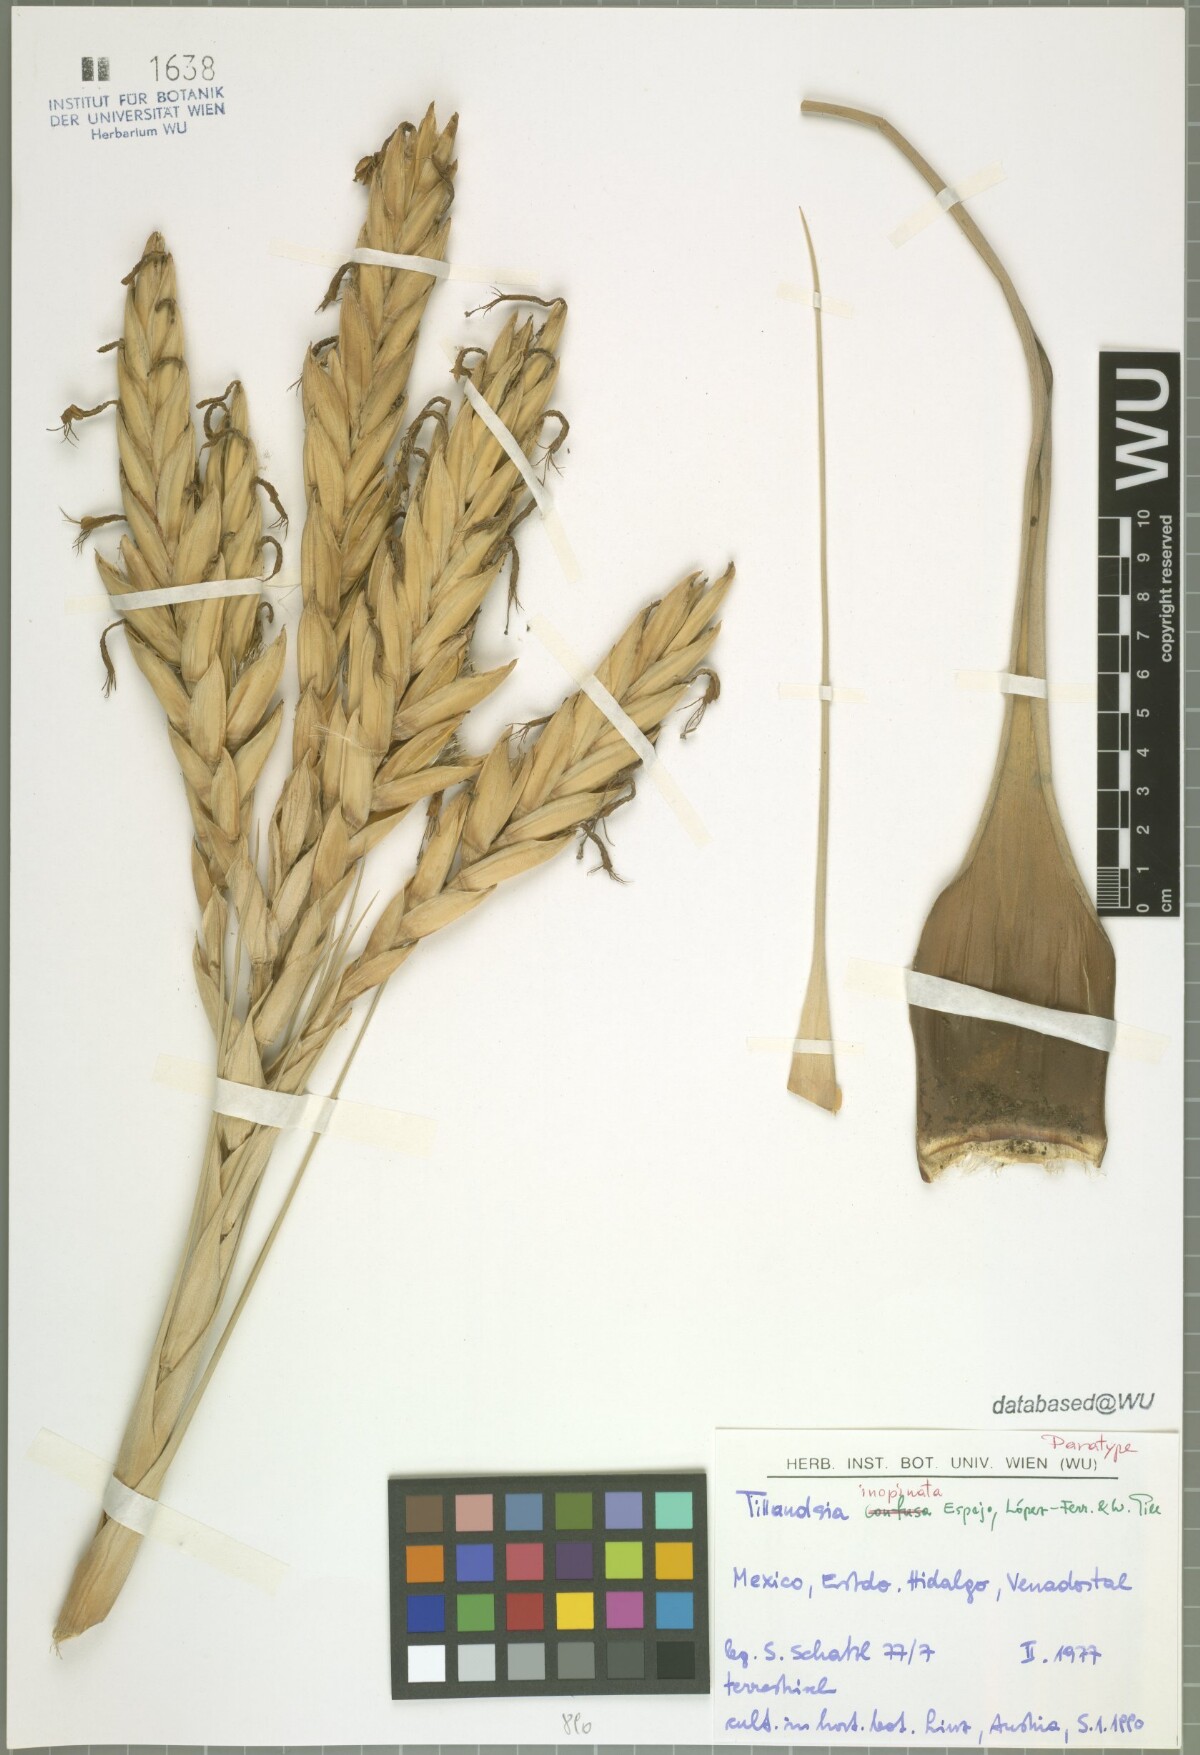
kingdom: Plantae
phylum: Tracheophyta
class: Liliopsida
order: Poales
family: Bromeliaceae
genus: Tillandsia
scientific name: Tillandsia inopinata
